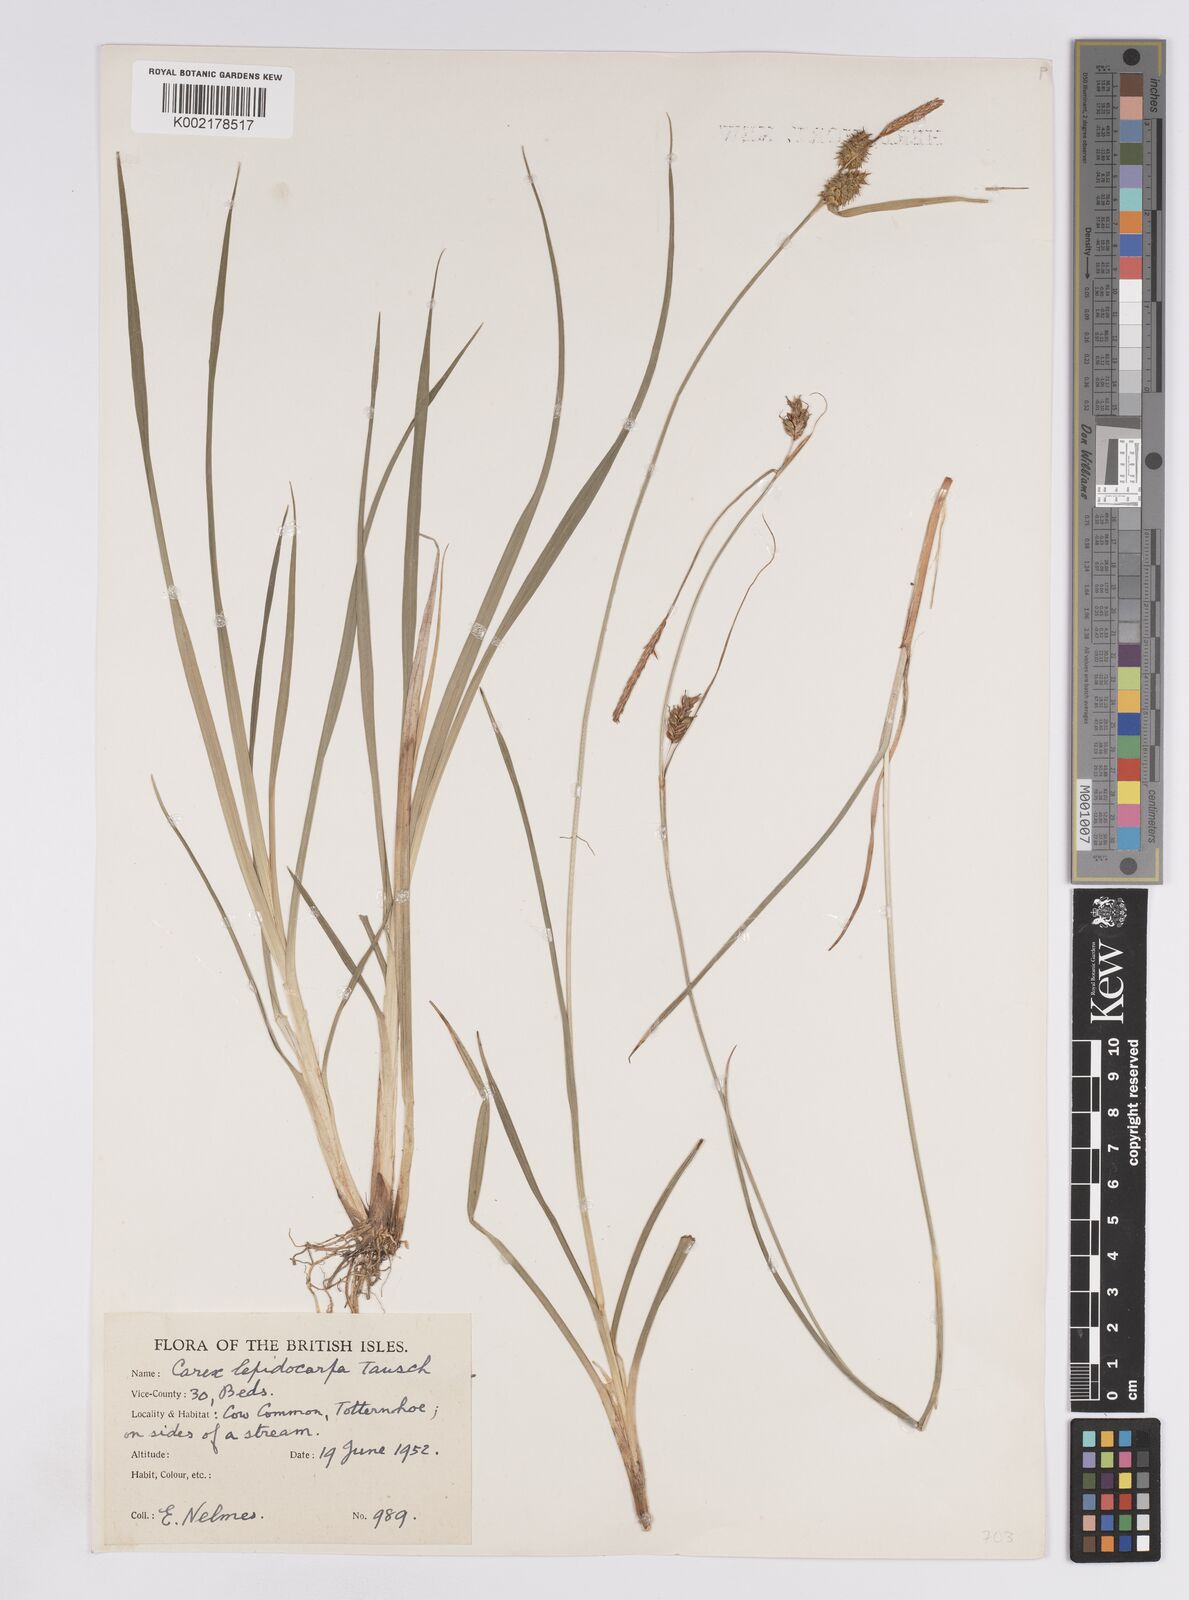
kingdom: Plantae
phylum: Tracheophyta
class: Liliopsida
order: Poales
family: Cyperaceae
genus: Carex
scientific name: Carex lepidocarpa
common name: Long-stalked yellow-sedge
